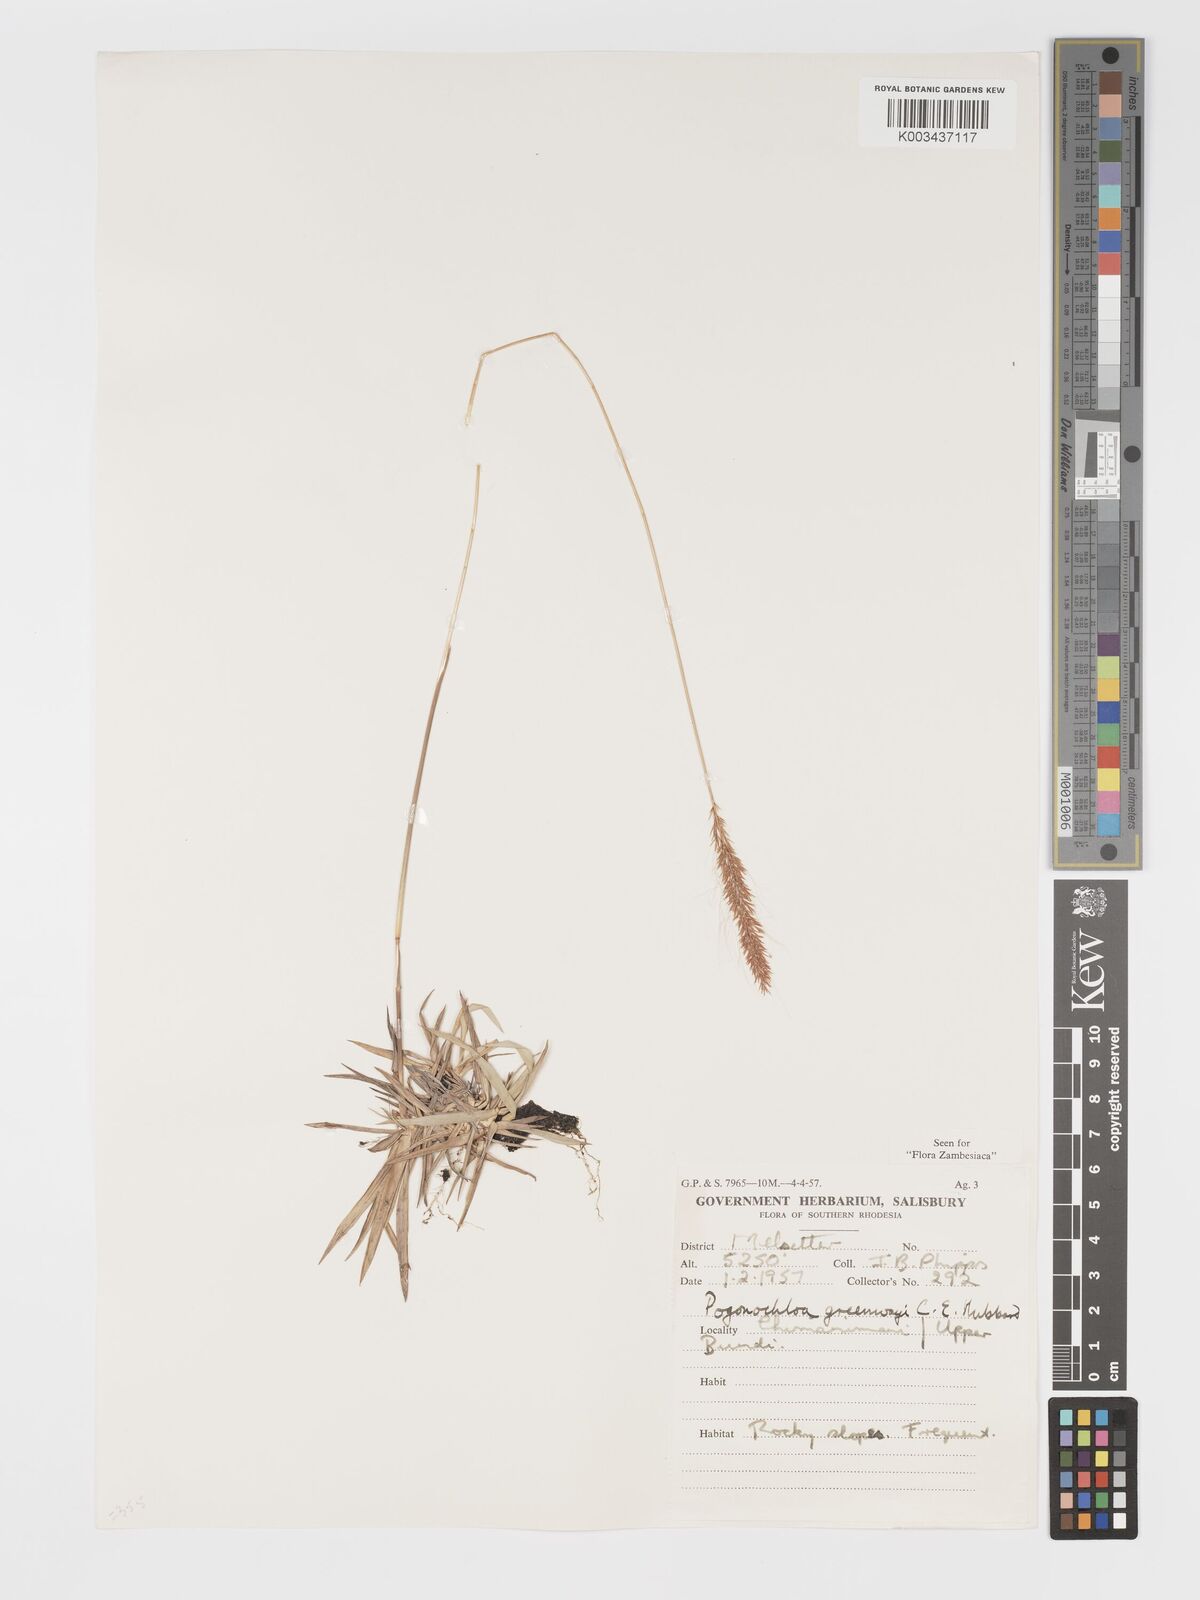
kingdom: Plantae
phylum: Tracheophyta
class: Liliopsida
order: Poales
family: Poaceae
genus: Pogonochloa
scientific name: Pogonochloa greenwayi
